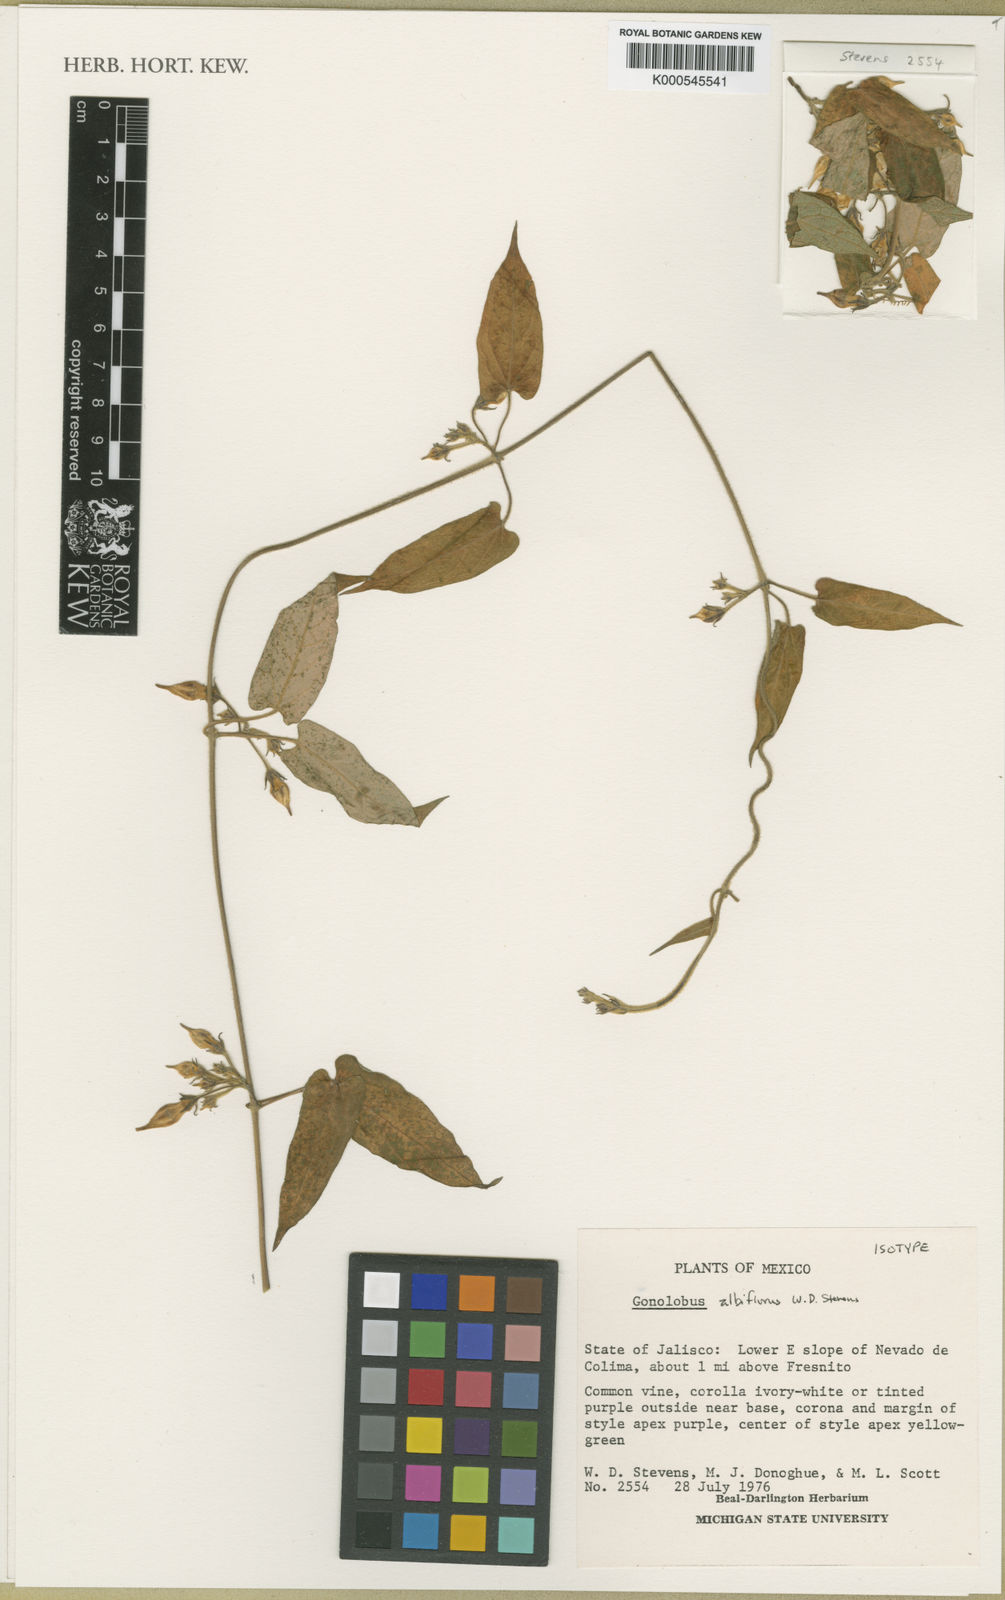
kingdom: Plantae
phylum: Tracheophyta
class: Magnoliopsida
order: Gentianales
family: Apocynaceae
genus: Gonolobus
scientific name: Gonolobus albiflorus
